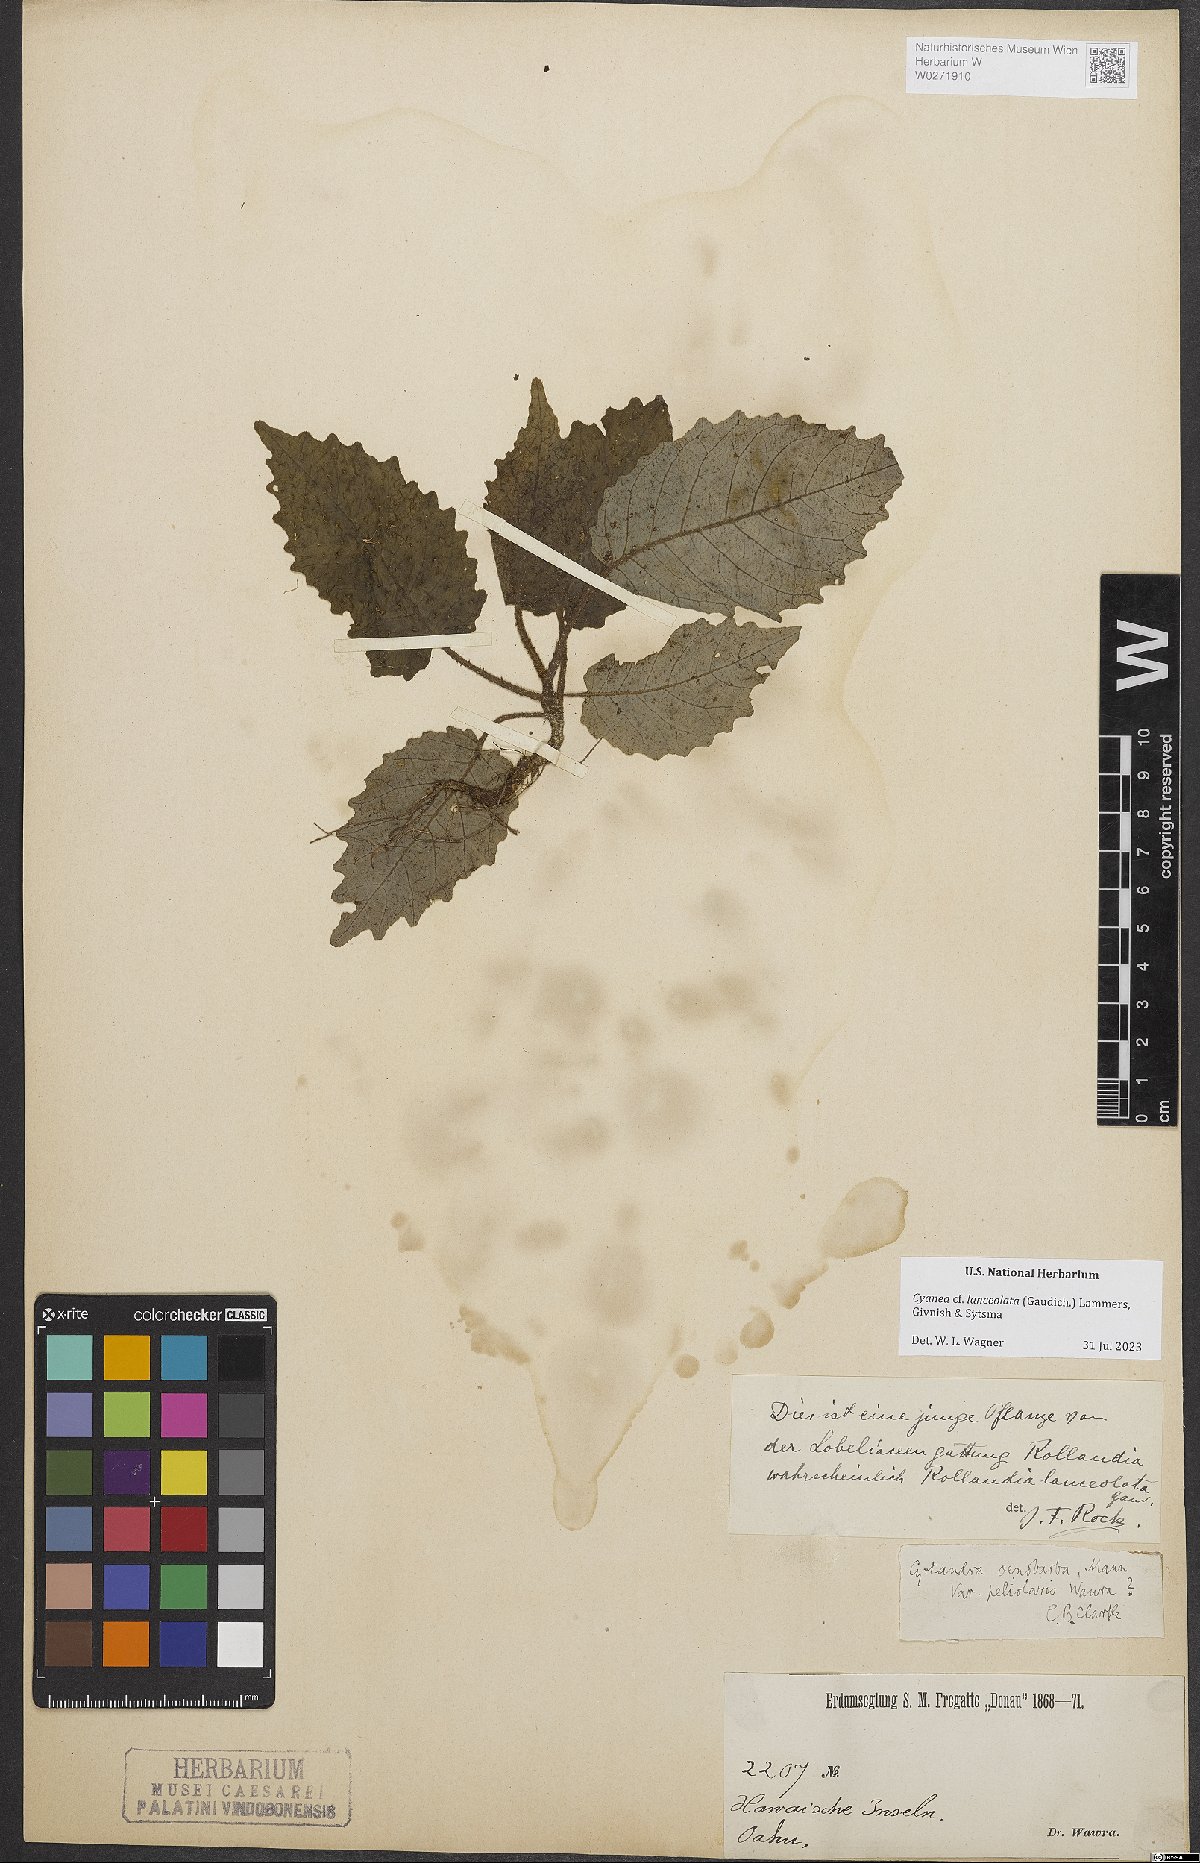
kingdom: Plantae
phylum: Tracheophyta
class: Magnoliopsida
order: Asterales
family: Campanulaceae
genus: Cyanea
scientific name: Cyanea lanceolata
